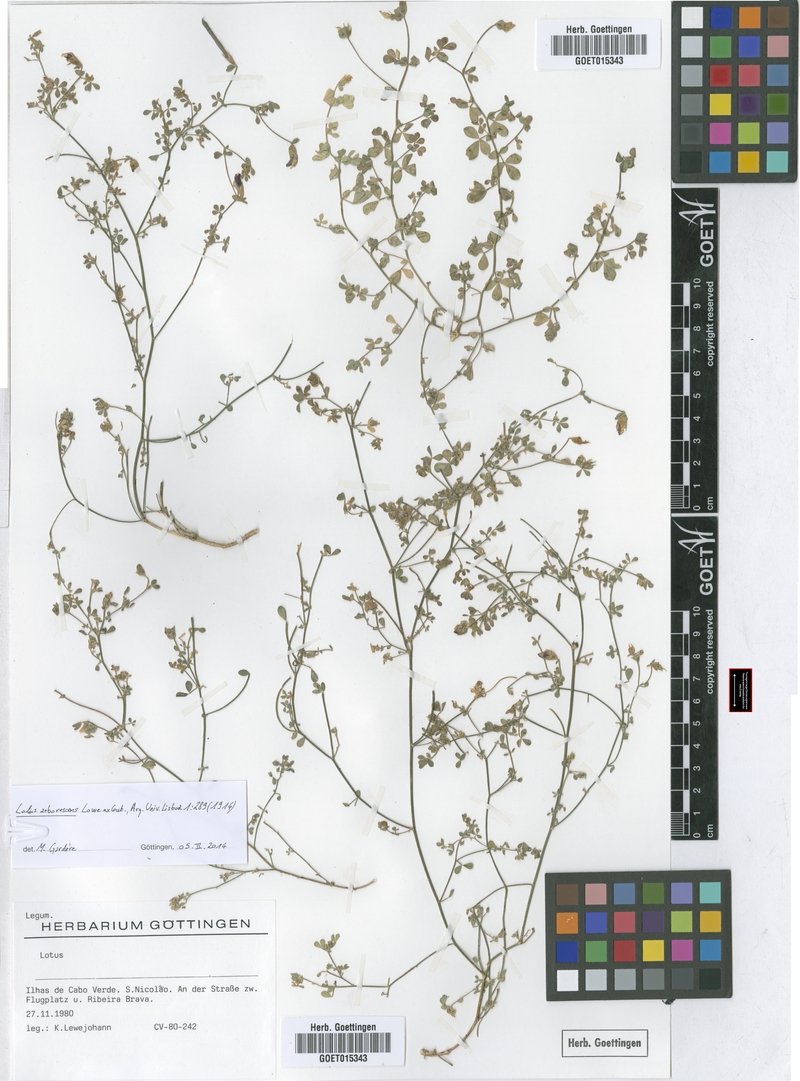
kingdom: Plantae
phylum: Tracheophyta
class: Magnoliopsida
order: Fabales
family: Fabaceae
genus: Lotus
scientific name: Lotus purpureus
